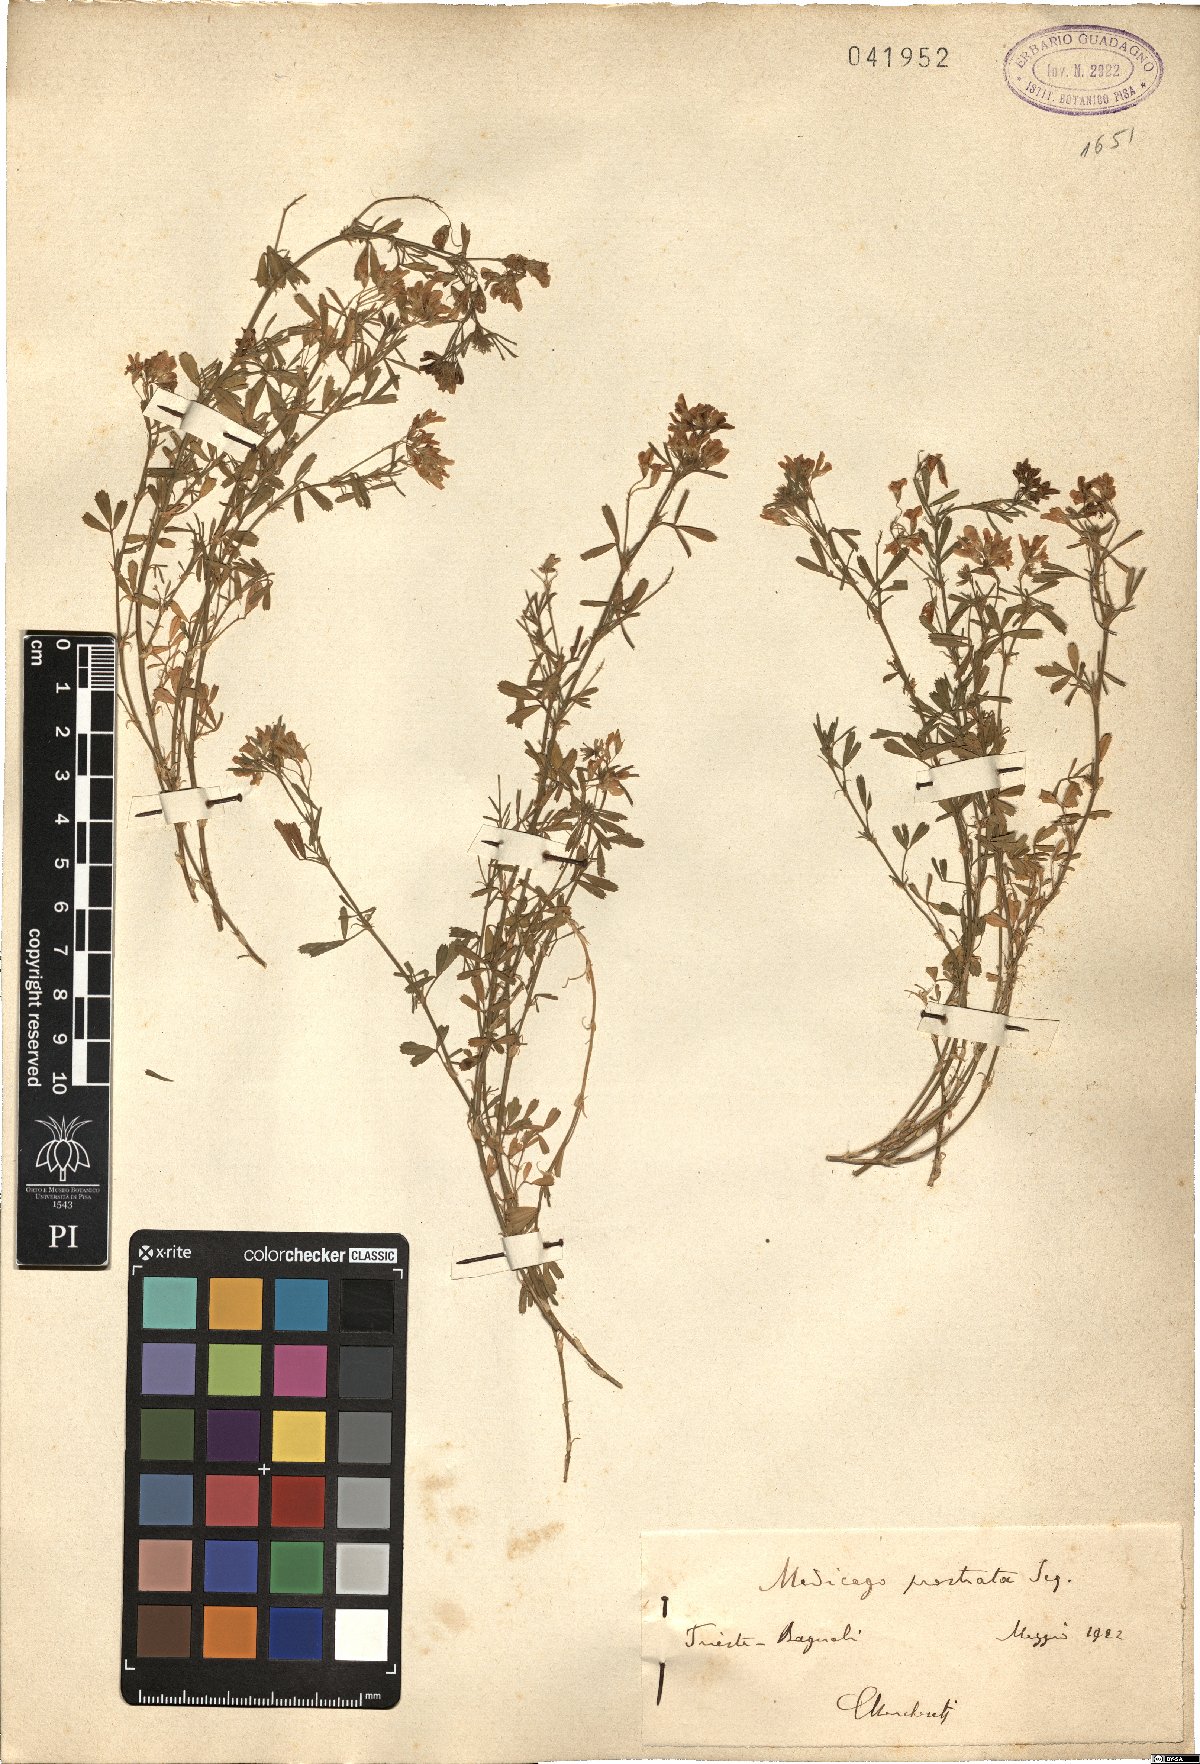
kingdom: Plantae
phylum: Tracheophyta
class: Magnoliopsida
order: Fabales
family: Fabaceae
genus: Medicago
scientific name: Medicago prostrata
